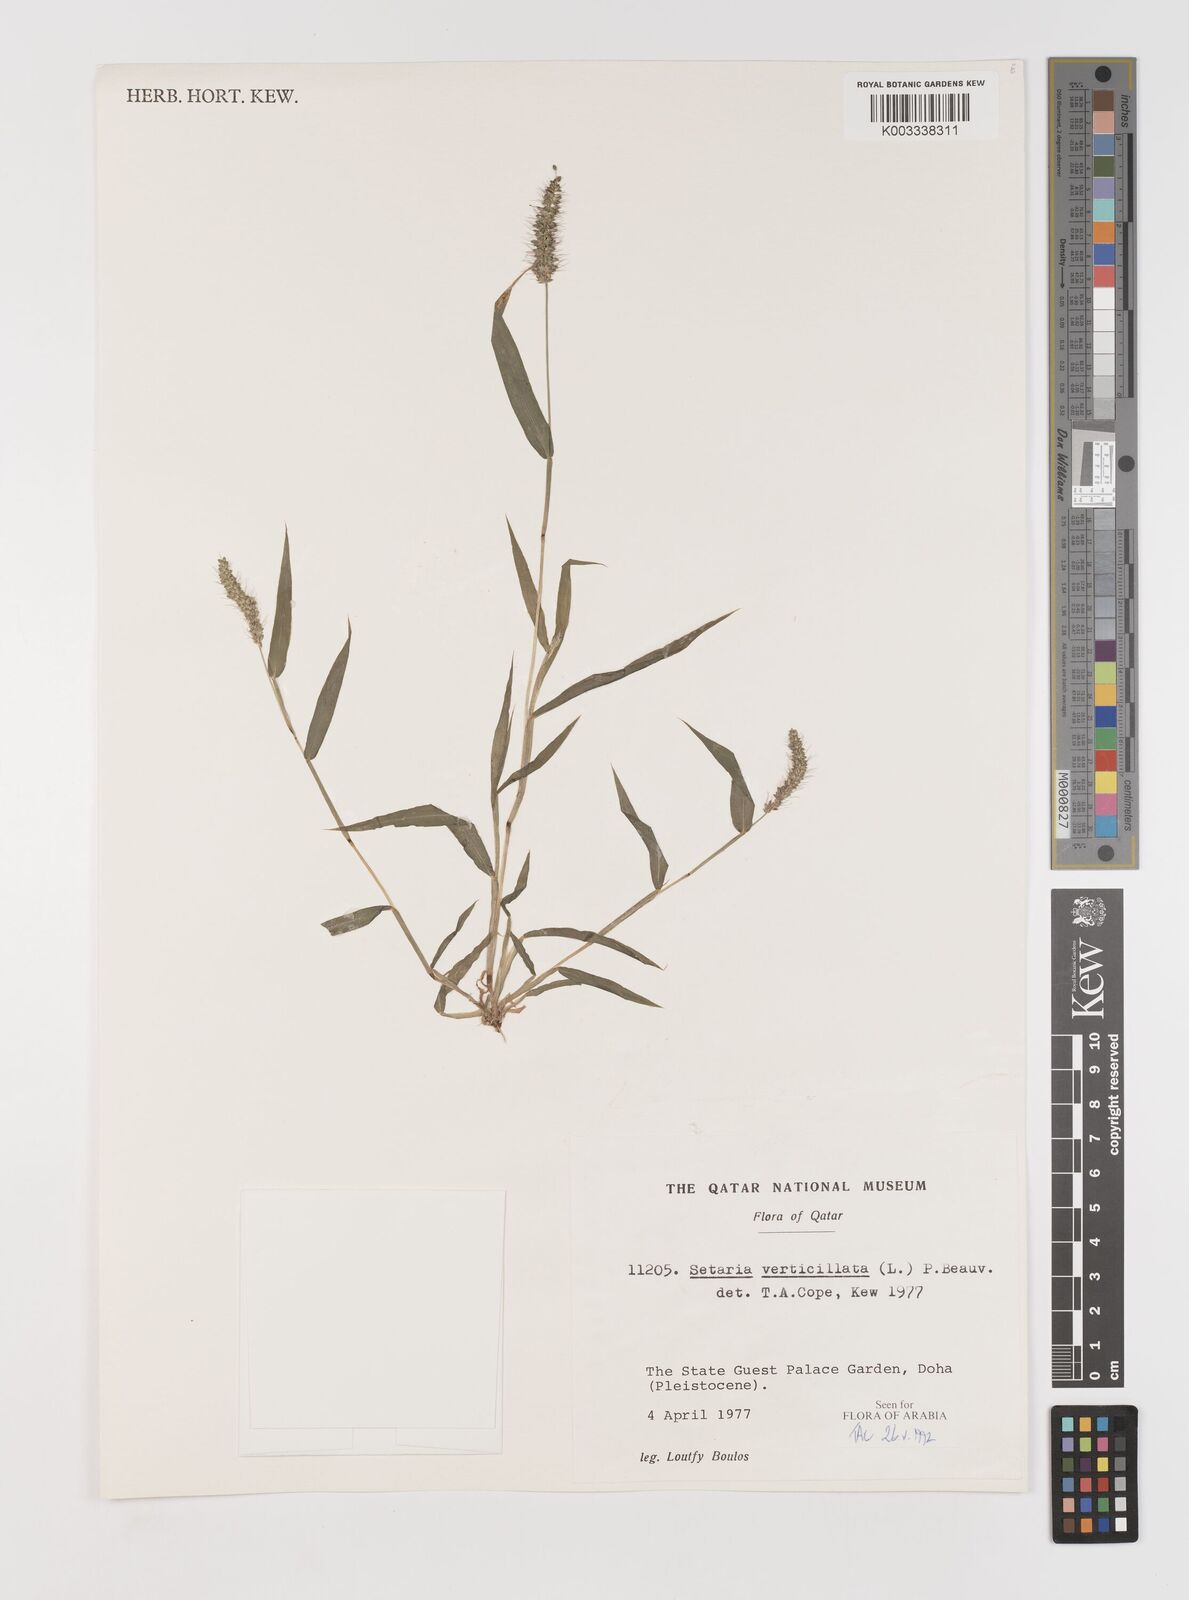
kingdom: Plantae
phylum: Tracheophyta
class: Liliopsida
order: Poales
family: Poaceae
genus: Setaria
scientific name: Setaria verticillata
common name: Hooked bristlegrass
